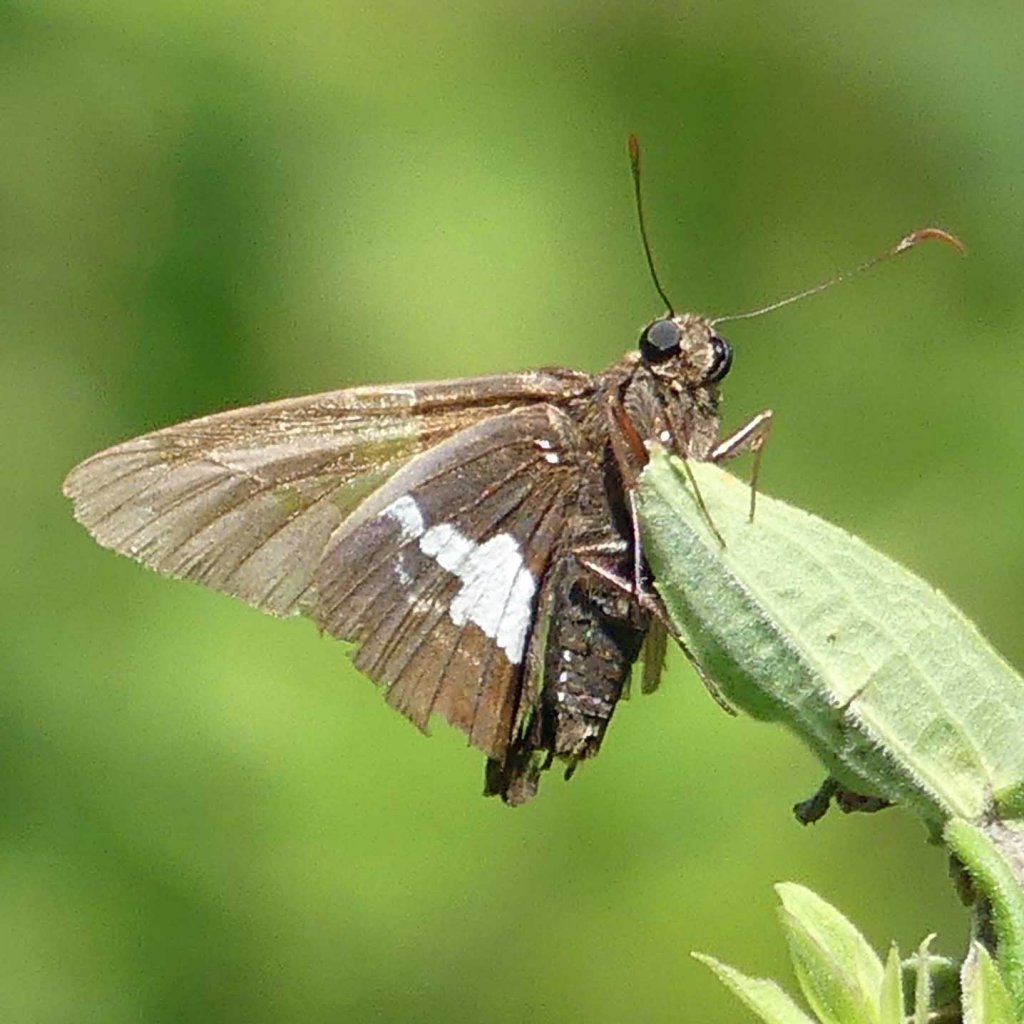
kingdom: Animalia
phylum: Arthropoda
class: Insecta
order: Lepidoptera
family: Hesperiidae
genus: Epargyreus
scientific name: Epargyreus clarus
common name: Silver-spotted Skipper
